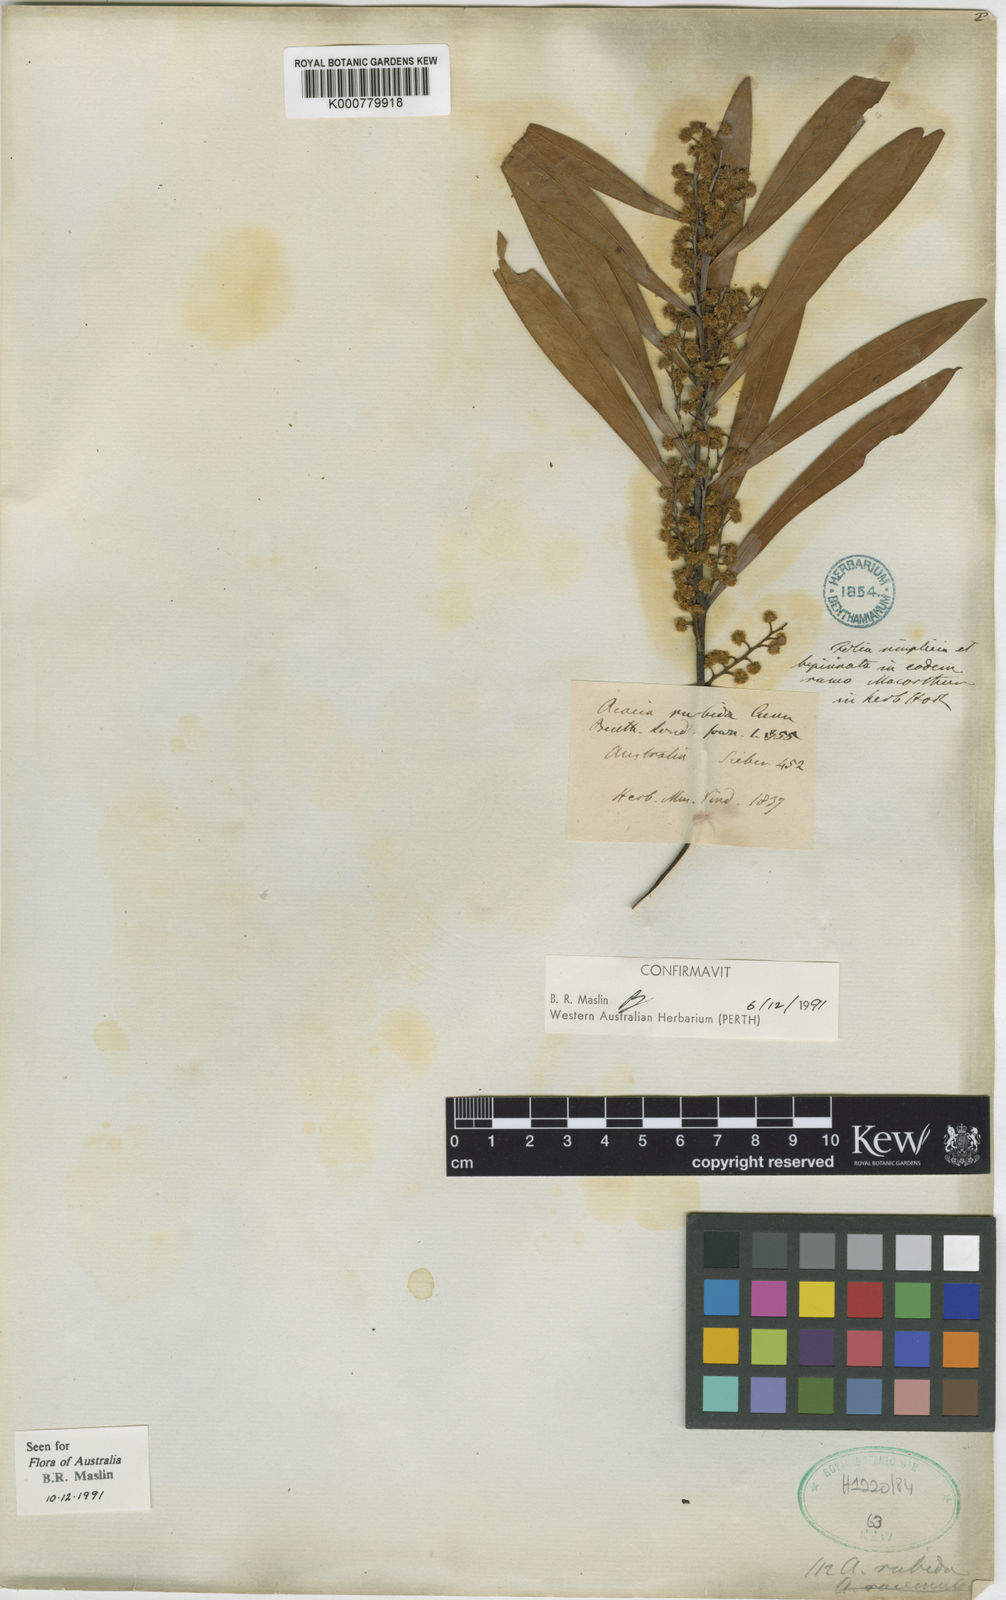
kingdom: Plantae
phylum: Tracheophyta
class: Magnoliopsida
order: Fabales
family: Fabaceae
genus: Acacia
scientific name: Acacia rubida
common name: Red leaf wattle
